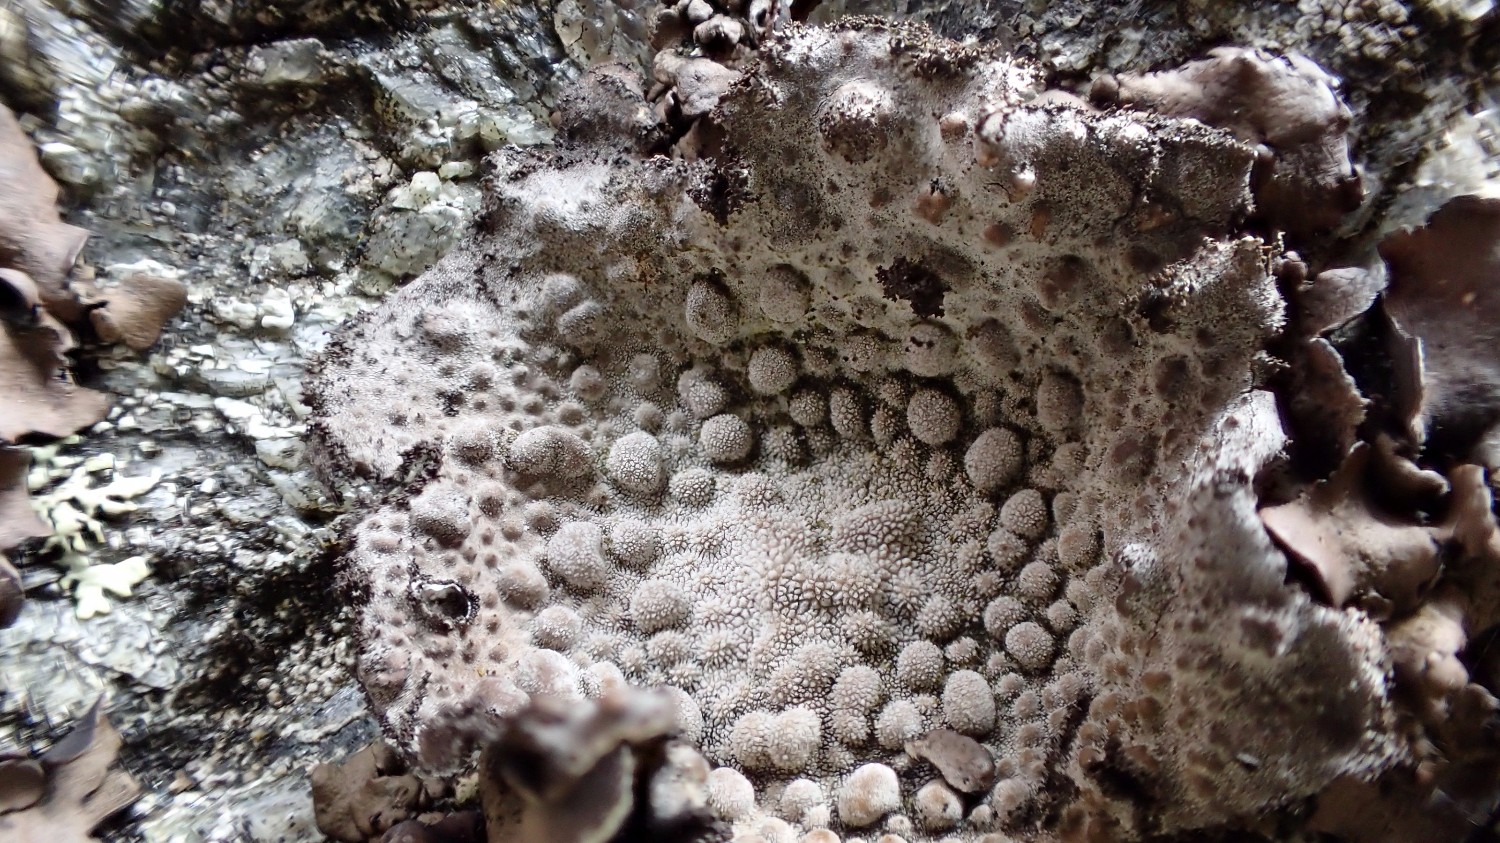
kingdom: Fungi
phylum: Ascomycota
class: Lecanoromycetes
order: Umbilicariales
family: Umbilicariaceae
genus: Lasallia
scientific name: Lasallia pustulata
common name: buklet navlelav
